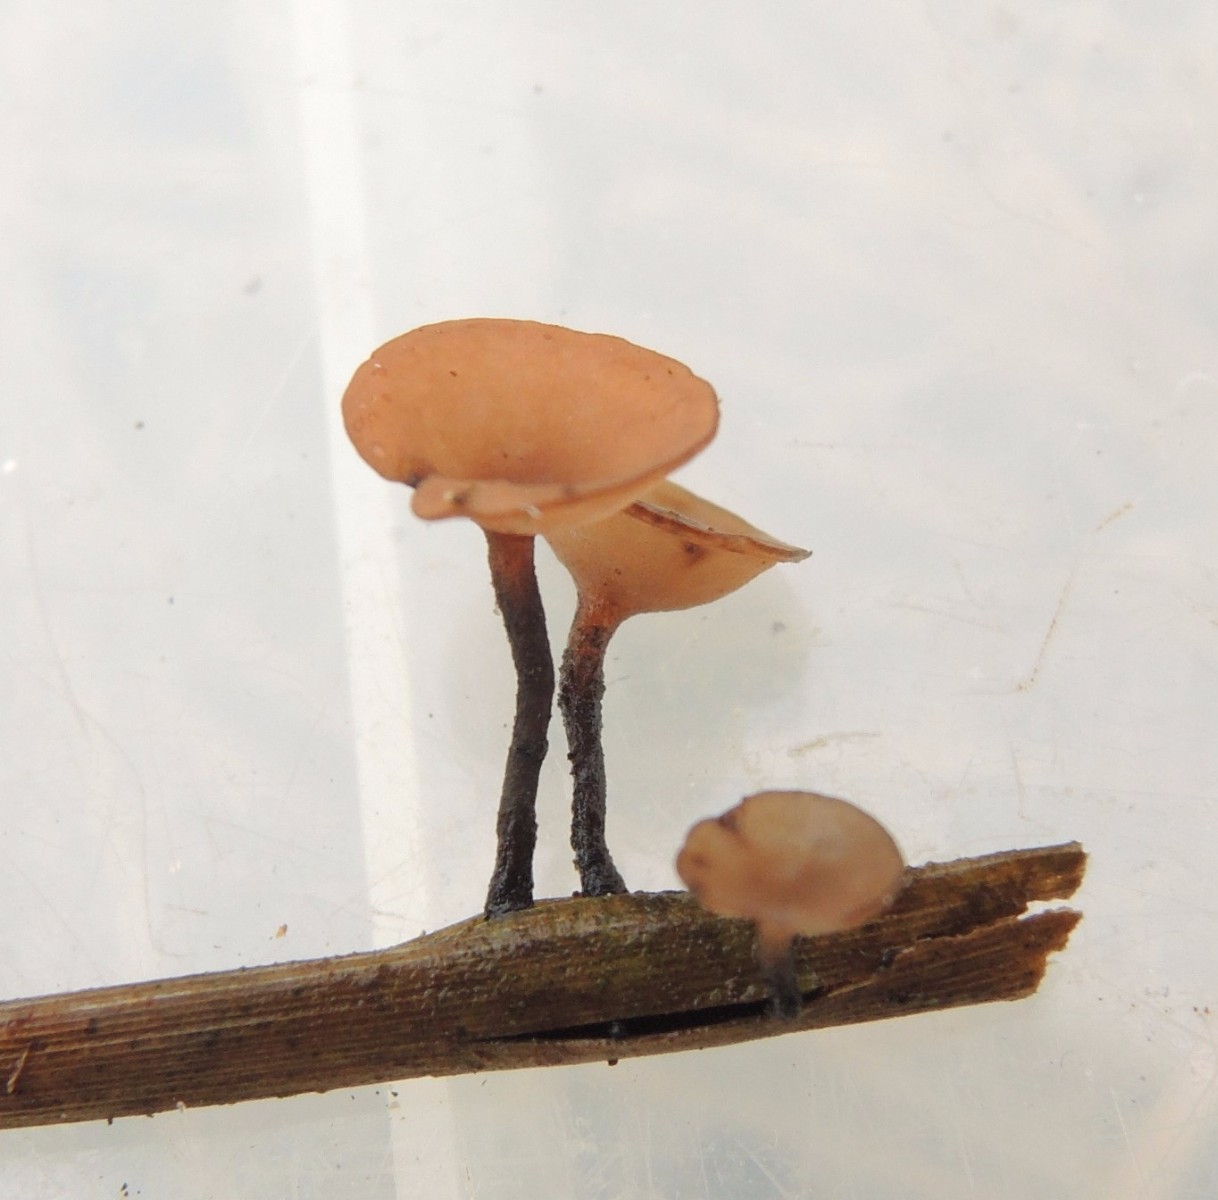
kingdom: Fungi
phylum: Ascomycota
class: Leotiomycetes
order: Helotiales
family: Sclerotiniaceae
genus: Myriosclerotinia
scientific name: Myriosclerotinia curreyana
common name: siv-knoldskive
